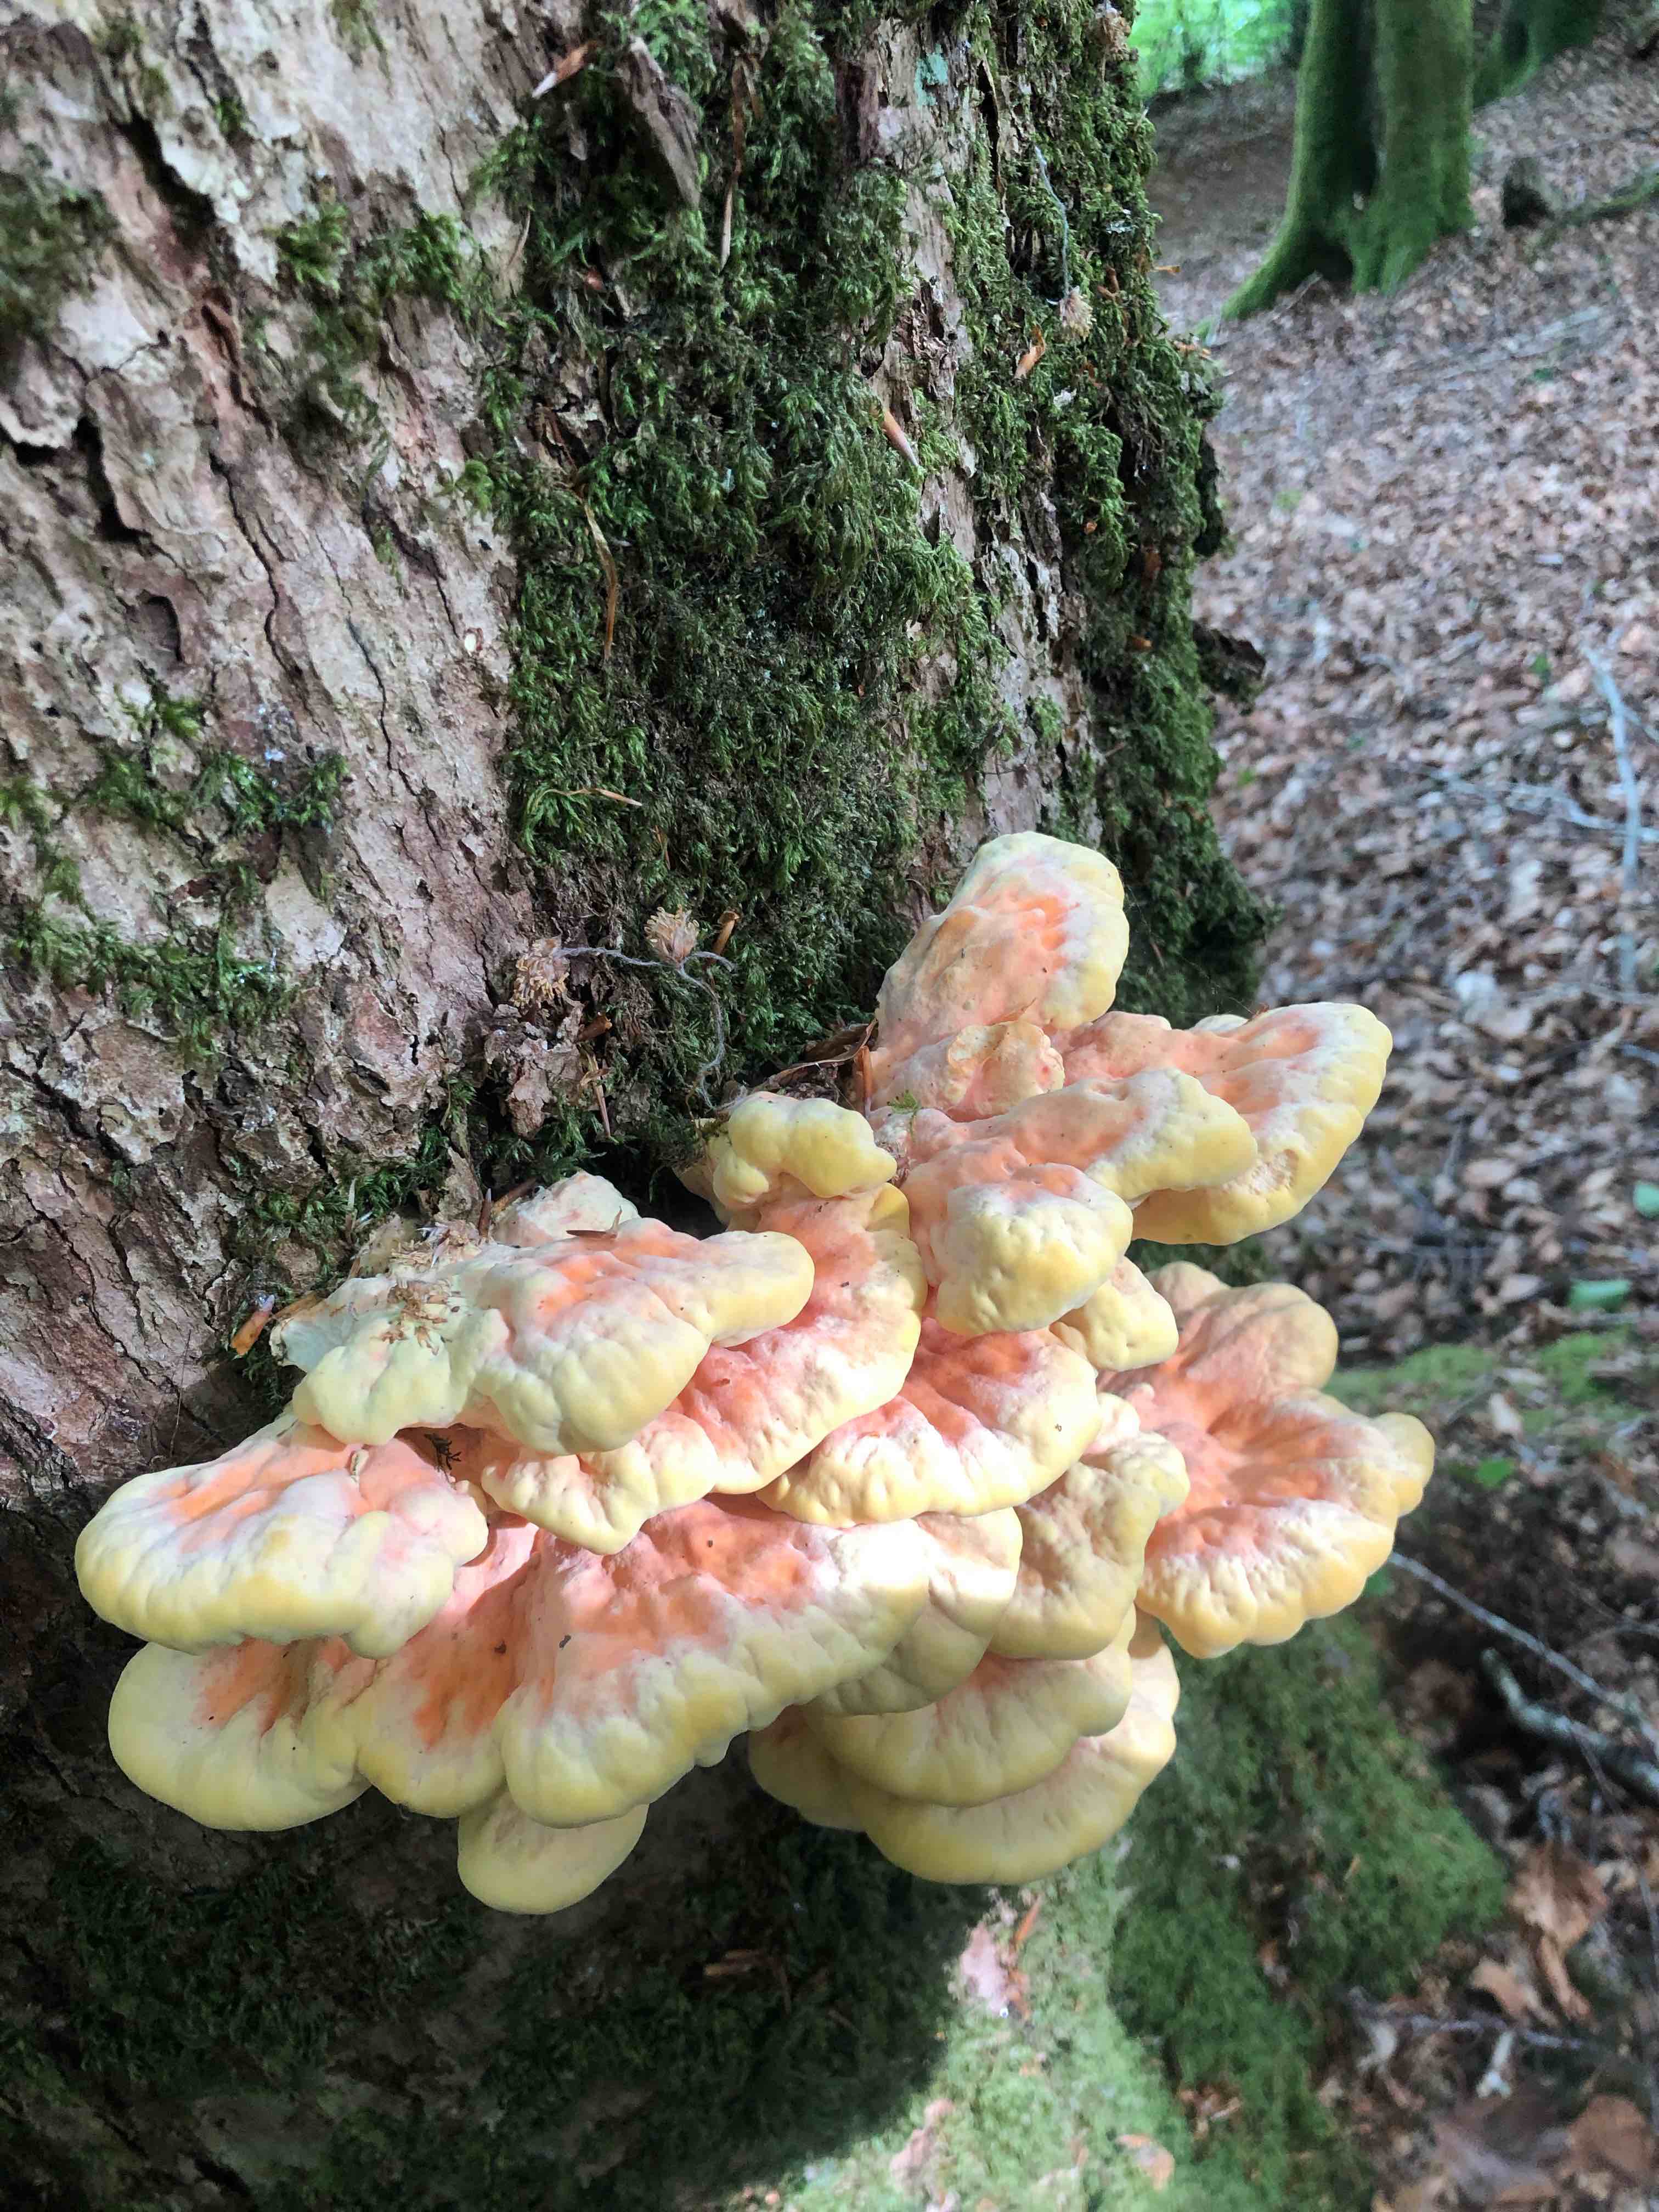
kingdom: Fungi
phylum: Basidiomycota
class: Agaricomycetes
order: Polyporales
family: Laetiporaceae
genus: Laetiporus
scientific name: Laetiporus sulphureus
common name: svovlporesvamp
